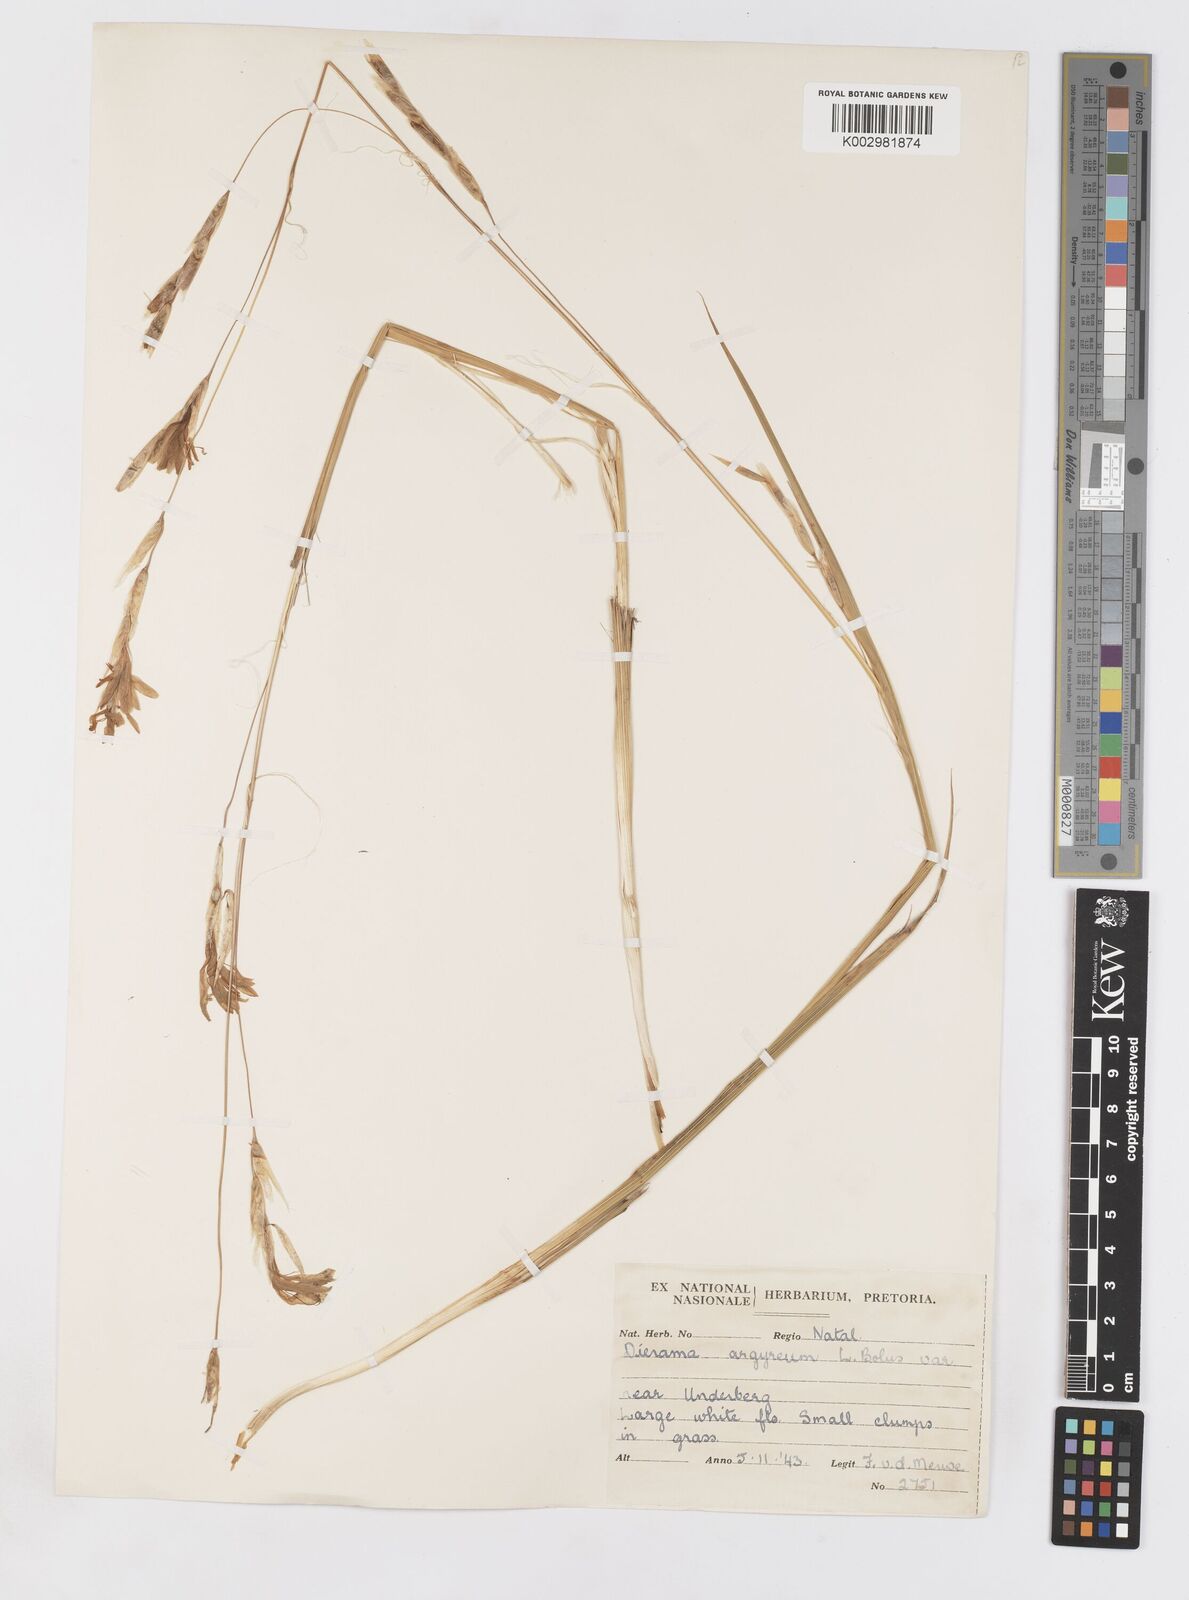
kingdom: Plantae
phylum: Tracheophyta
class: Liliopsida
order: Asparagales
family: Iridaceae
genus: Dierama
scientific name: Dierama argyreum
